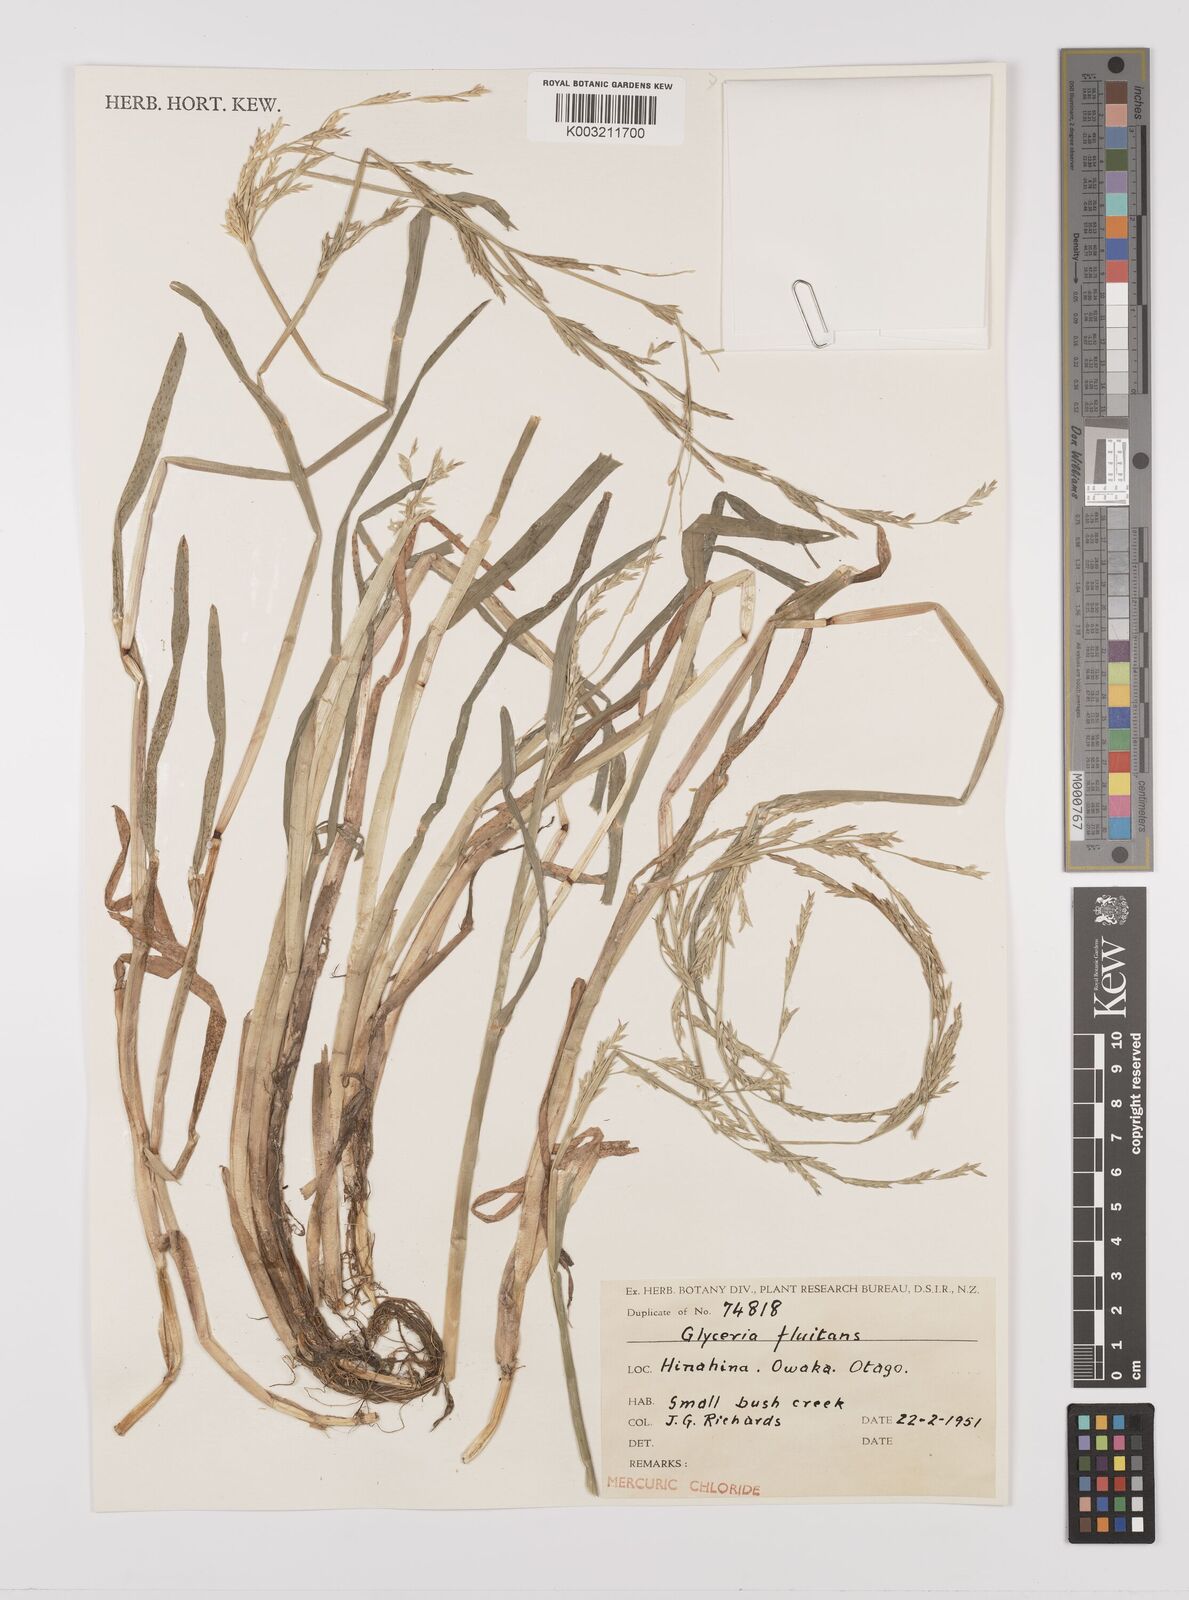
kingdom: Plantae
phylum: Tracheophyta
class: Liliopsida
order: Poales
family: Poaceae
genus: Glyceria
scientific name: Glyceria fluitans
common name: Floating sweet-grass
